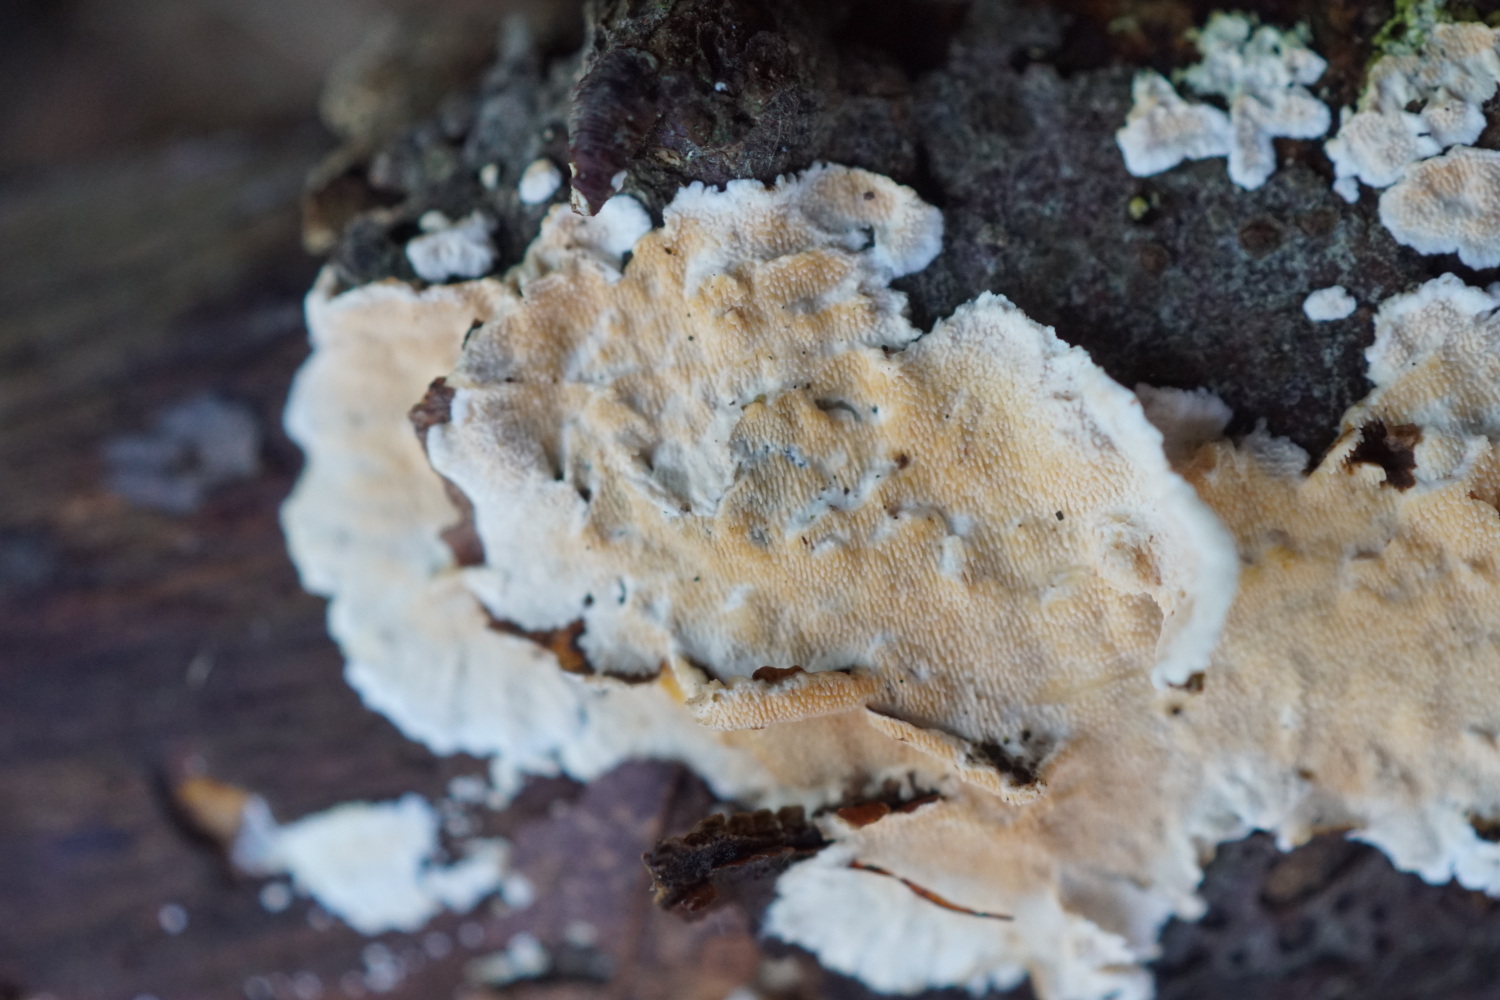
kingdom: Fungi
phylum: Basidiomycota
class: Agaricomycetes
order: Polyporales
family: Steccherinaceae
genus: Steccherinum
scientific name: Steccherinum ochraceum
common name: almindelig skønpig
